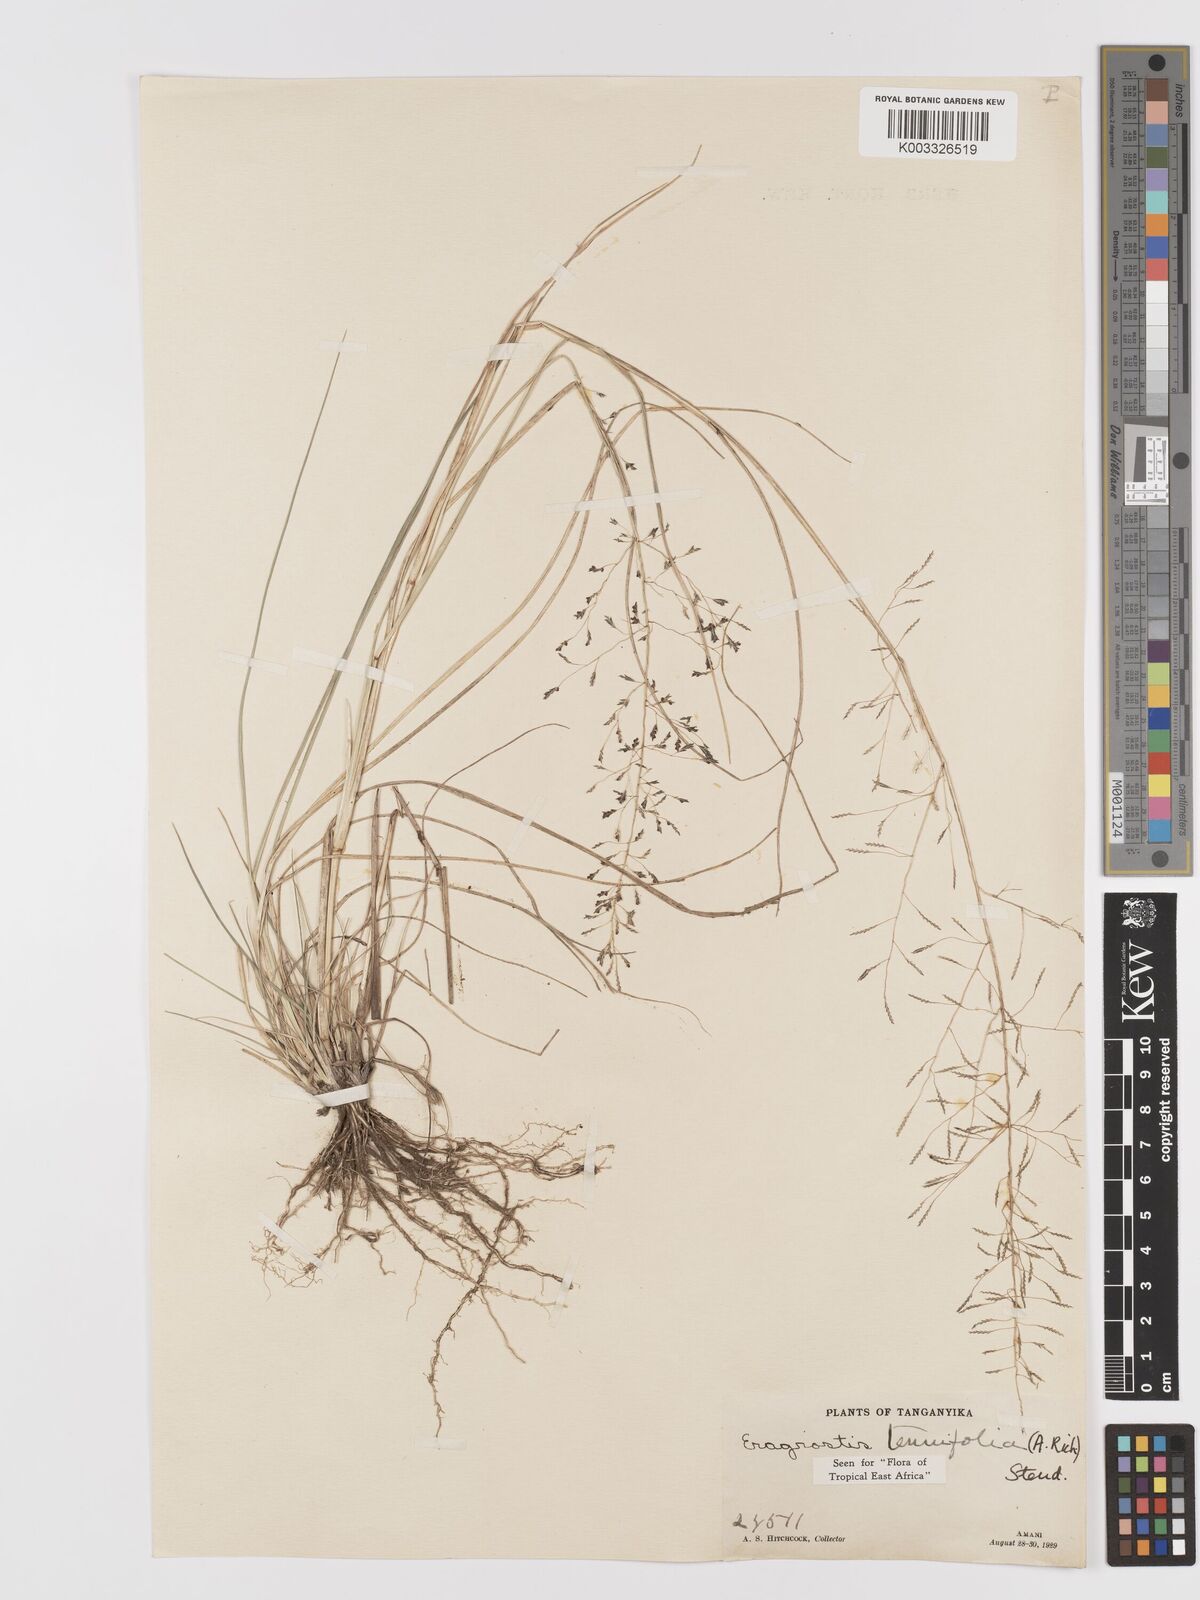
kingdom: Plantae
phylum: Tracheophyta
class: Liliopsida
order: Poales
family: Poaceae
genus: Eragrostis
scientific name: Eragrostis tenuifolia
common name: Elastic grass
